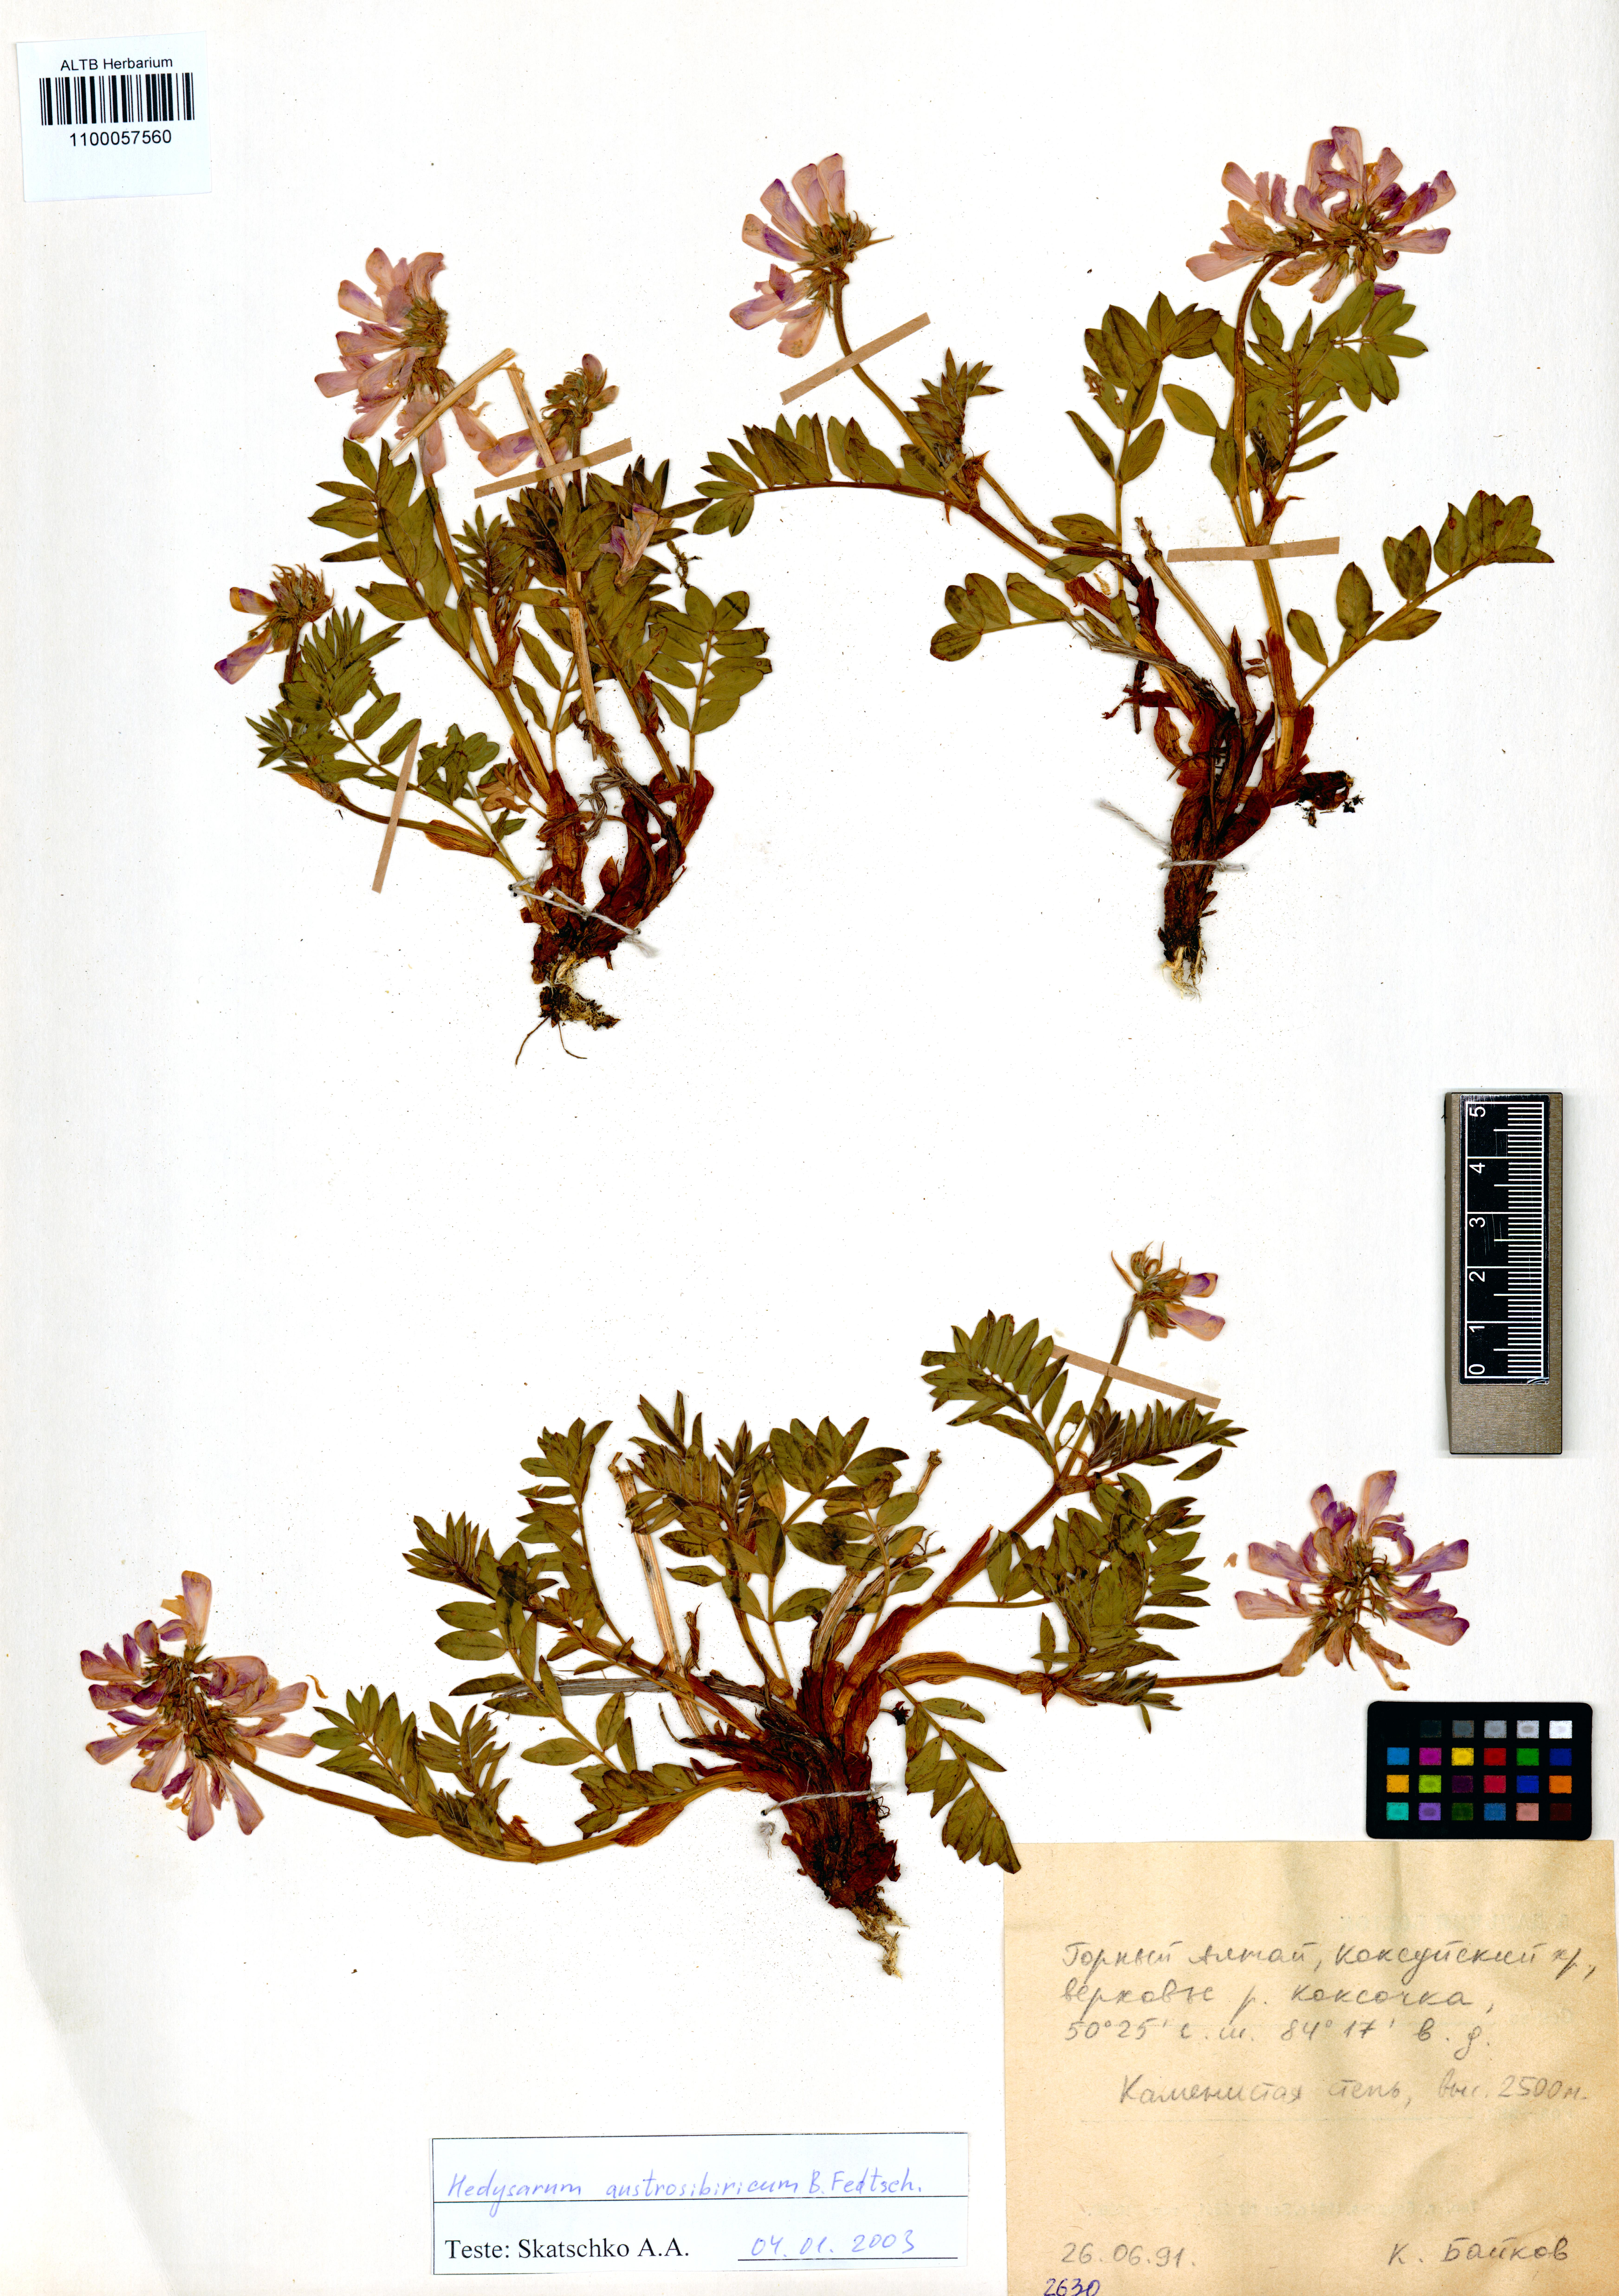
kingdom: Plantae
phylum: Tracheophyta
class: Magnoliopsida
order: Fabales
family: Fabaceae
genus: Hedysarum
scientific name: Hedysarum neglectum
